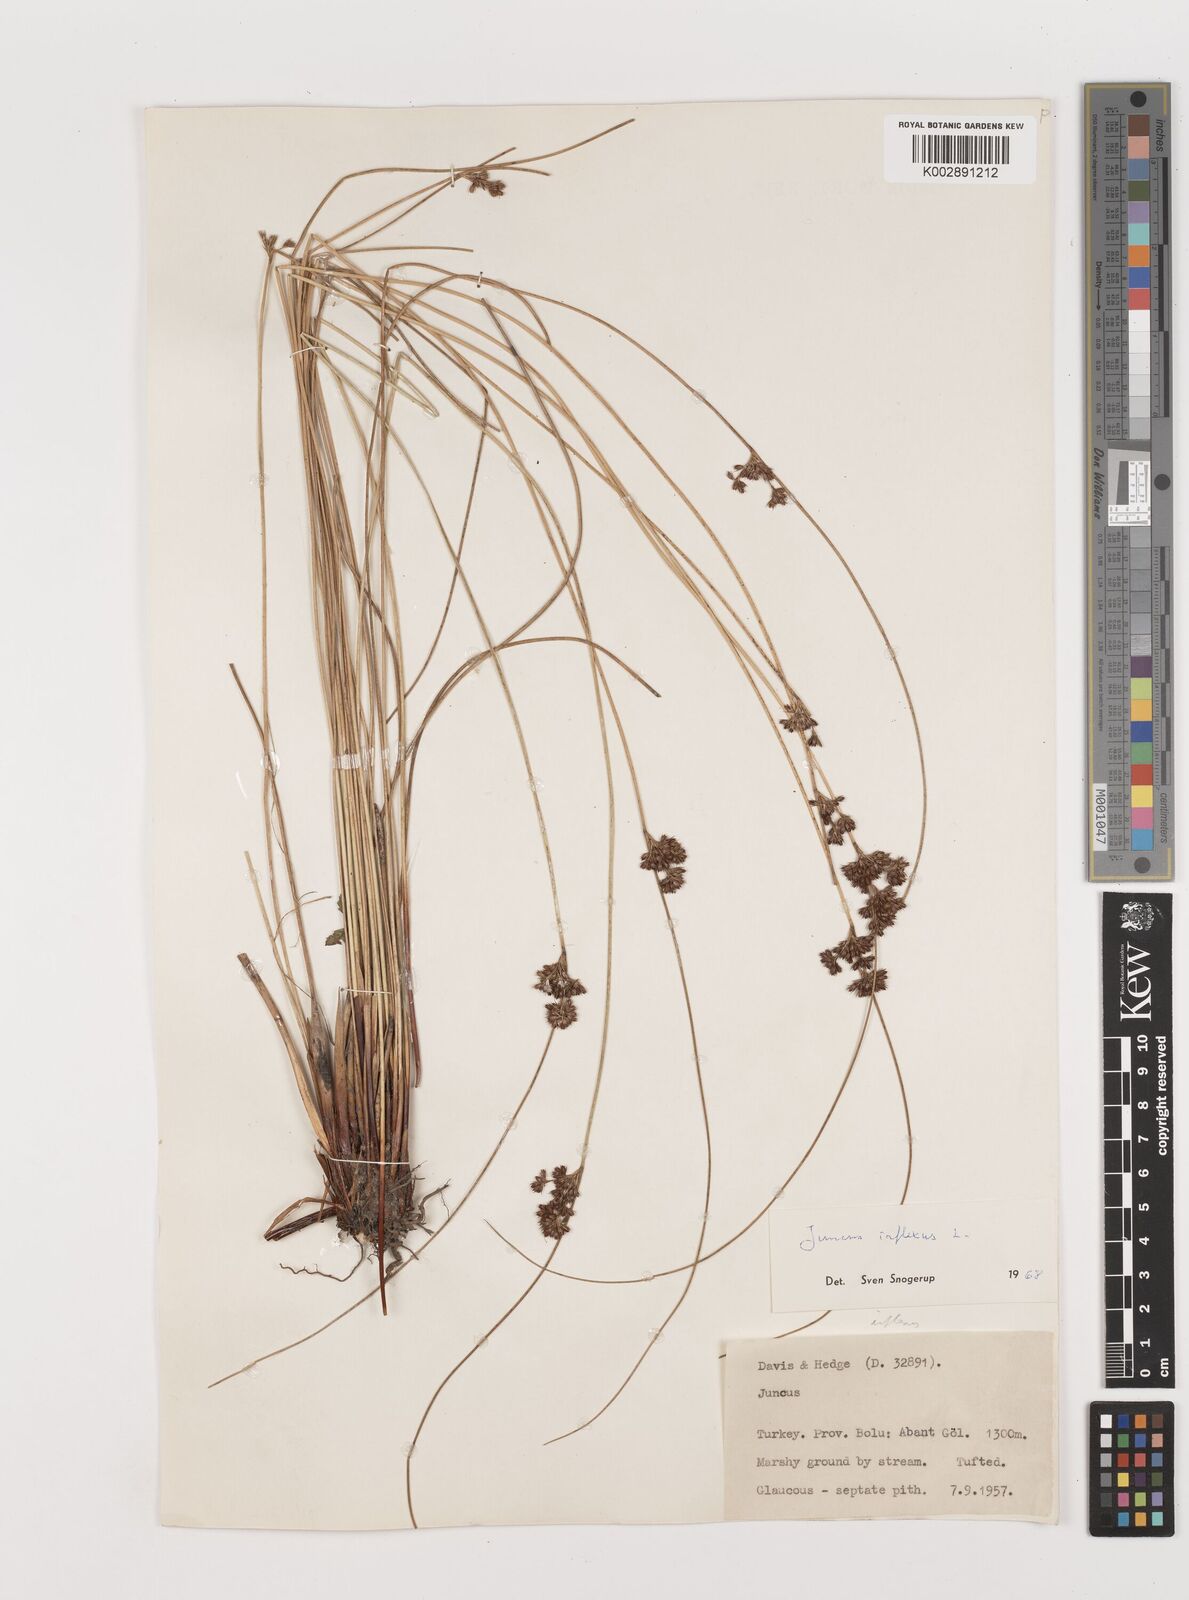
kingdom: Plantae
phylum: Tracheophyta
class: Liliopsida
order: Poales
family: Juncaceae
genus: Juncus
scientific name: Juncus inflexus
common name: Hard rush
